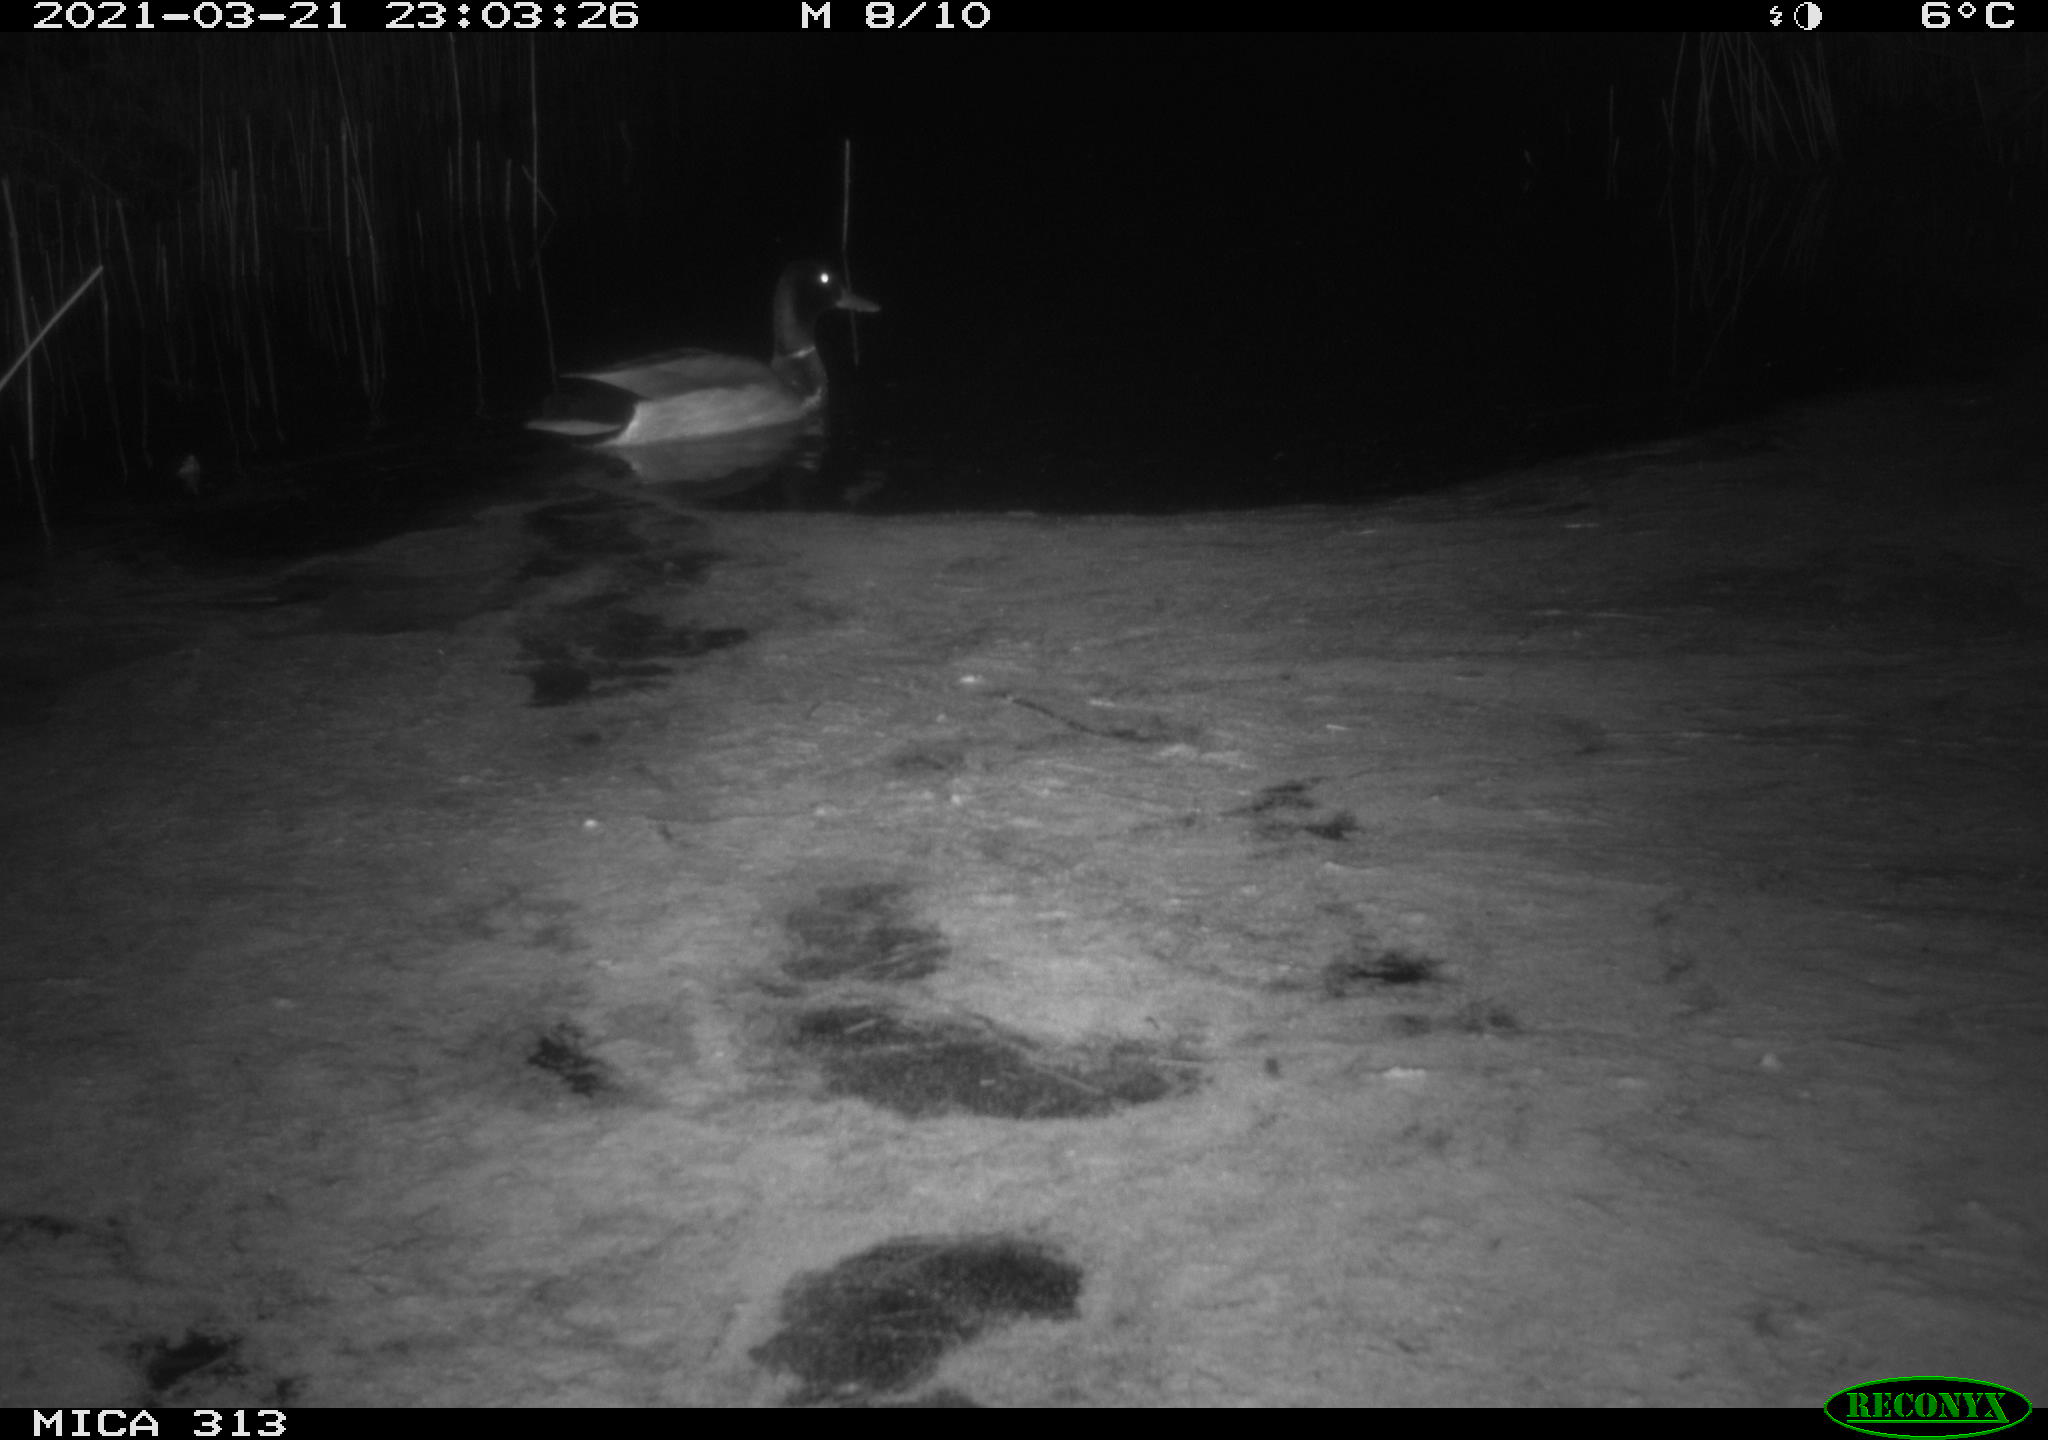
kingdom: Animalia
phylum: Chordata
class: Aves
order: Anseriformes
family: Anatidae
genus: Anas
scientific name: Anas platyrhynchos
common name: Mallard
